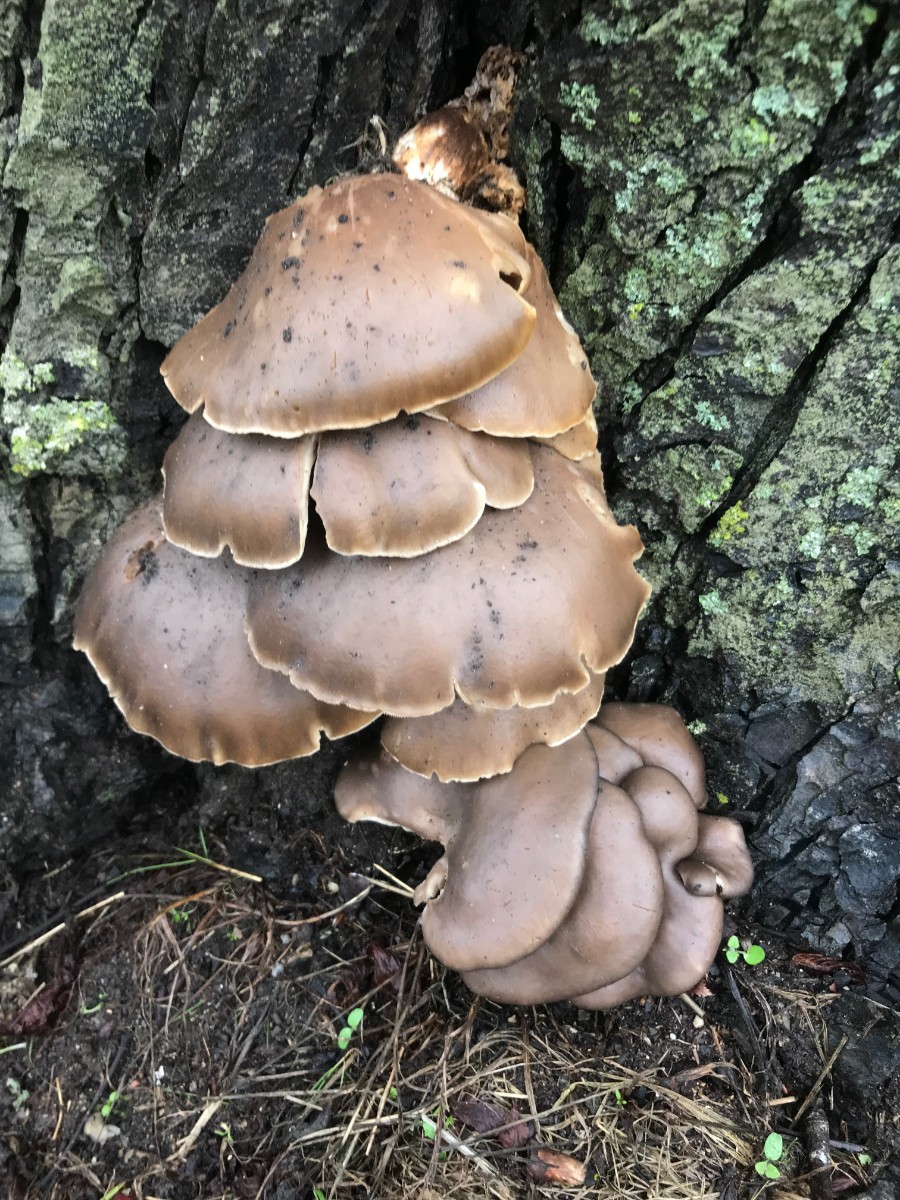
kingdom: Fungi
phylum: Basidiomycota
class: Agaricomycetes
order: Agaricales
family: Pleurotaceae
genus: Pleurotus
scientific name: Pleurotus ostreatus
